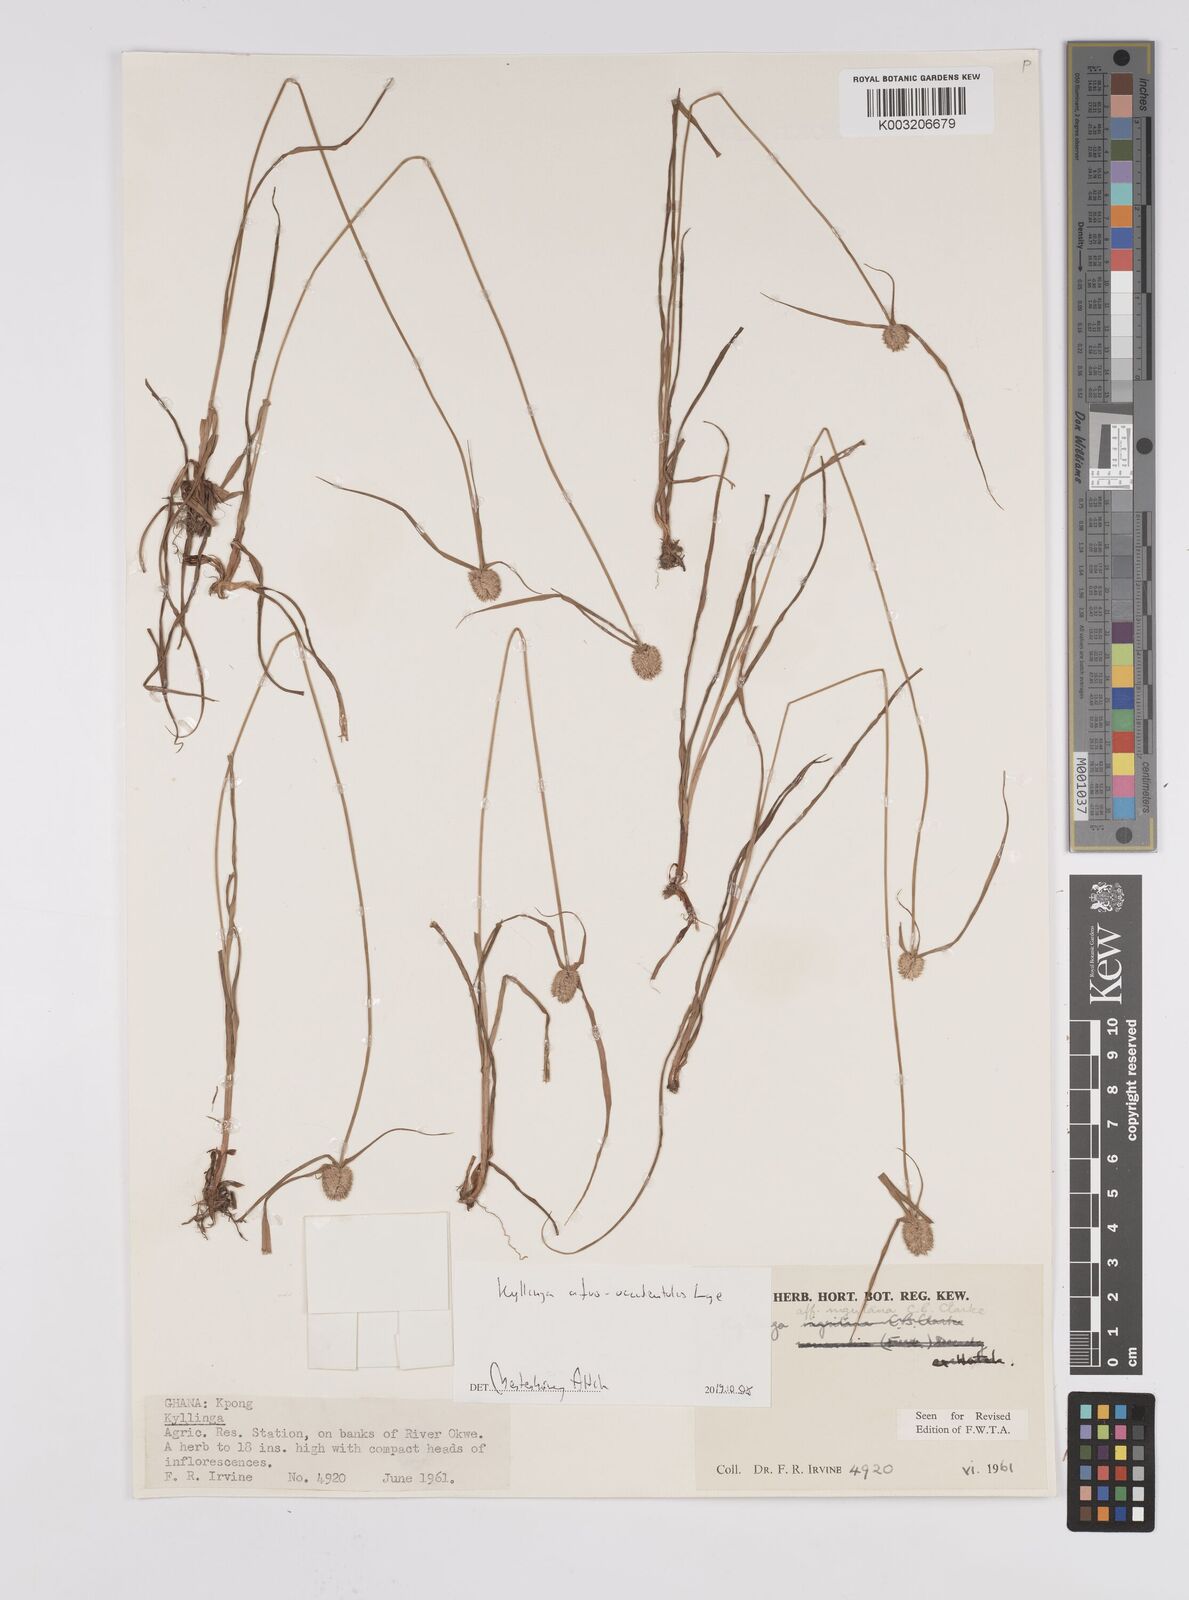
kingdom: Plantae
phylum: Tracheophyta
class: Liliopsida
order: Poales
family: Cyperaceae
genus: Cyperus
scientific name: Cyperus afro-occidentalis
